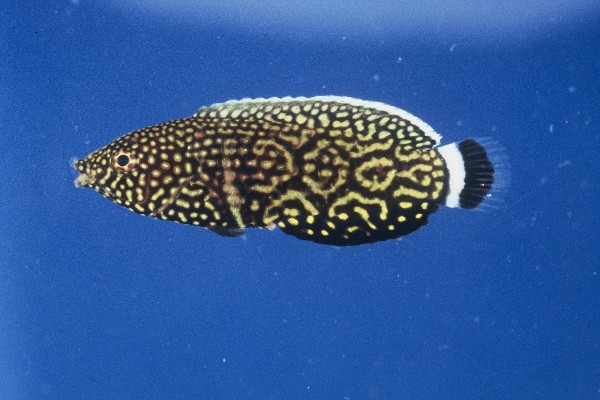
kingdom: Animalia
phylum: Chordata
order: Perciformes
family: Labridae
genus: Anampses
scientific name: Anampses melanurus
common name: White-spotted wrasse
